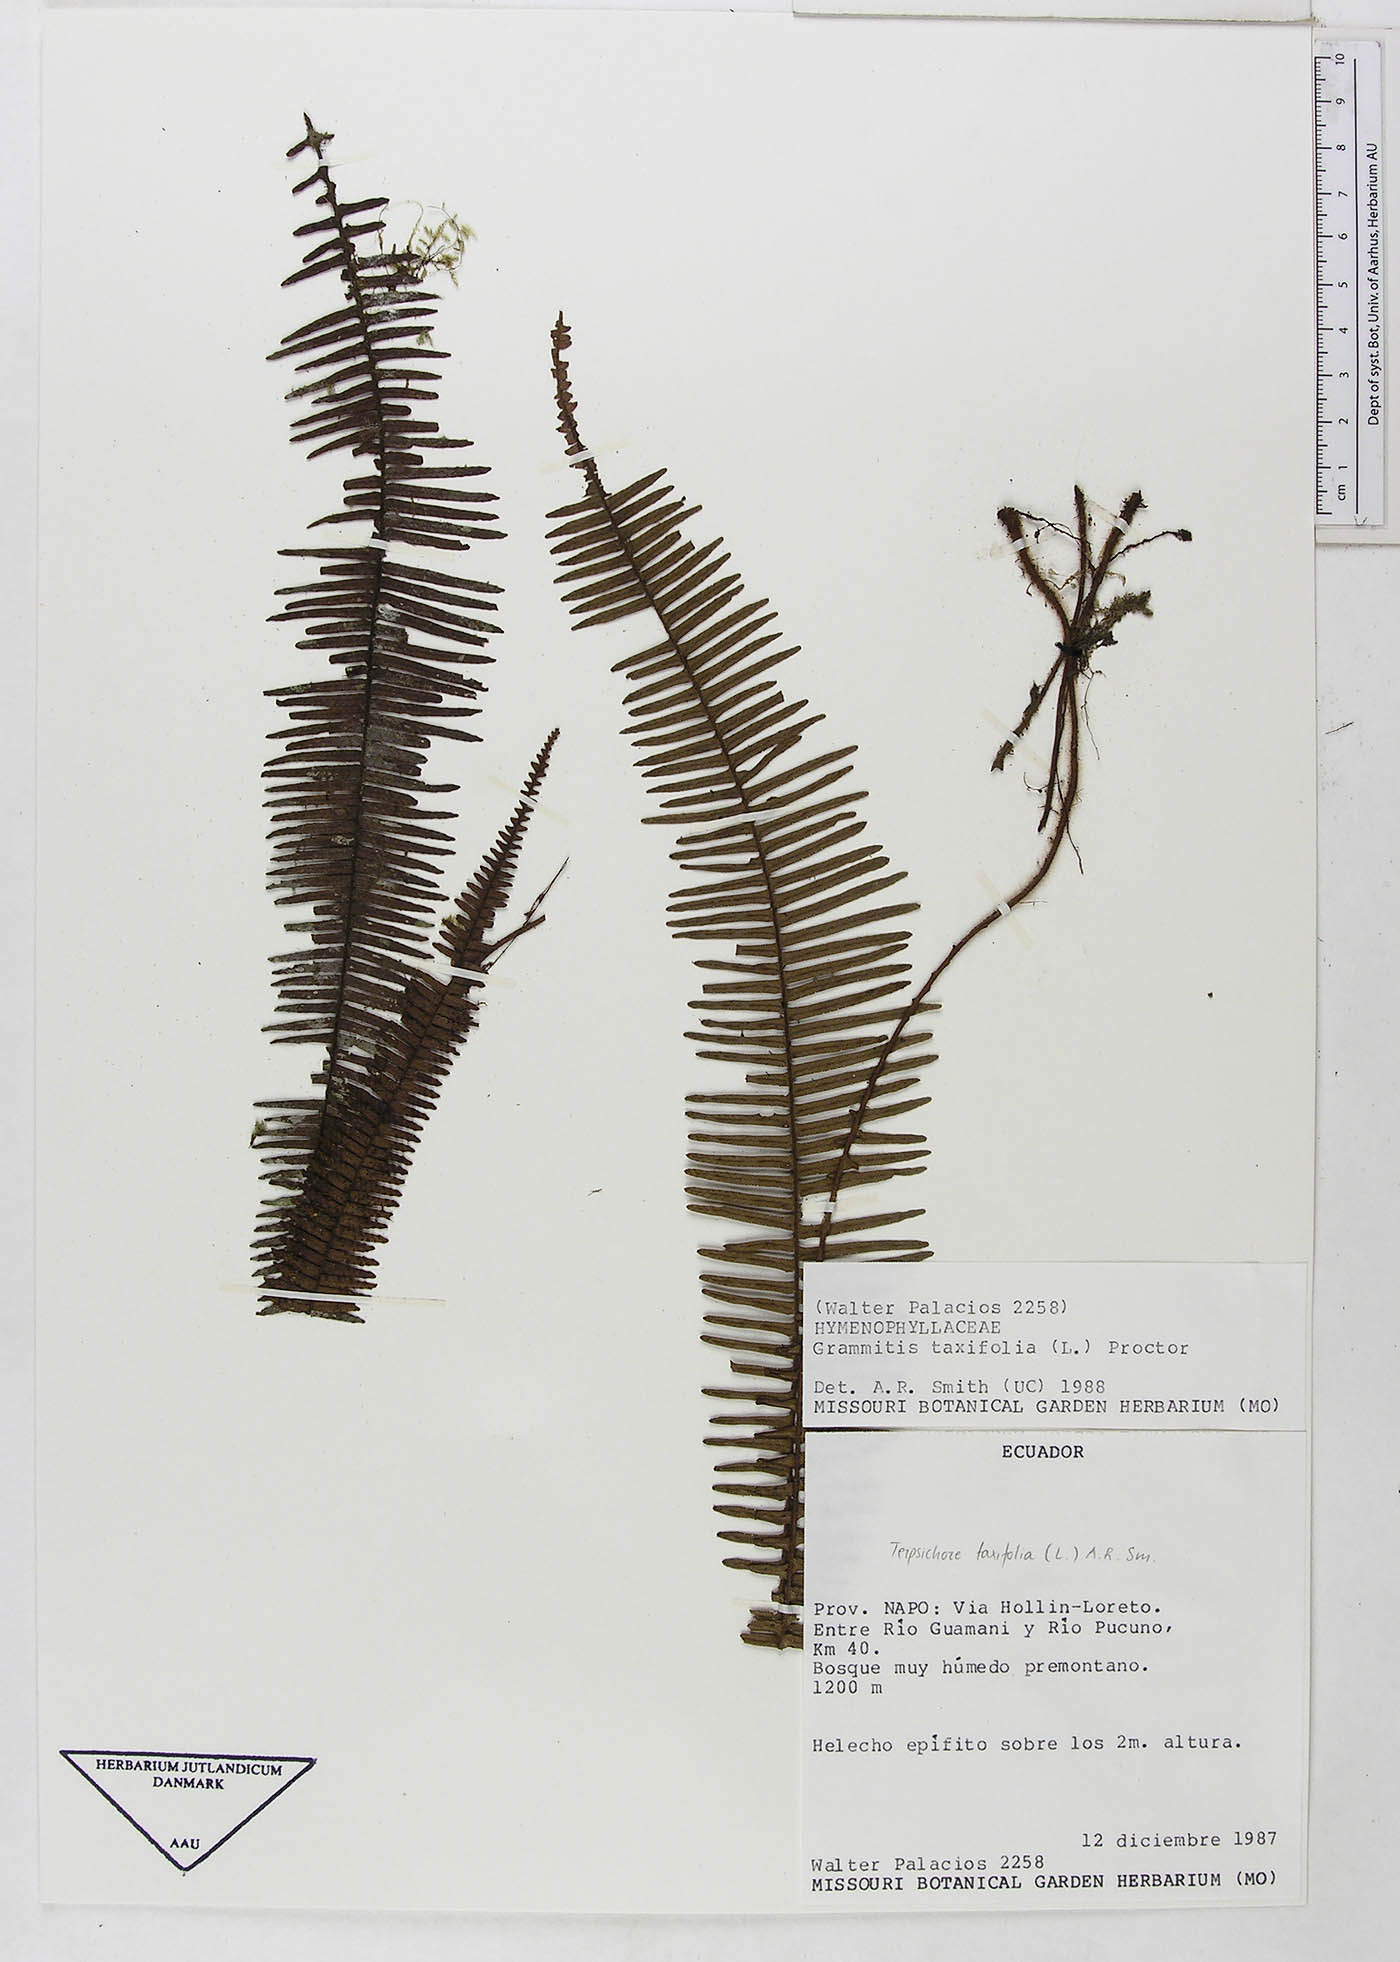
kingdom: Plantae
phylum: Tracheophyta
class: Polypodiopsida
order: Polypodiales
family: Polypodiaceae
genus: Mycopteris
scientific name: Mycopteris taxifolia
